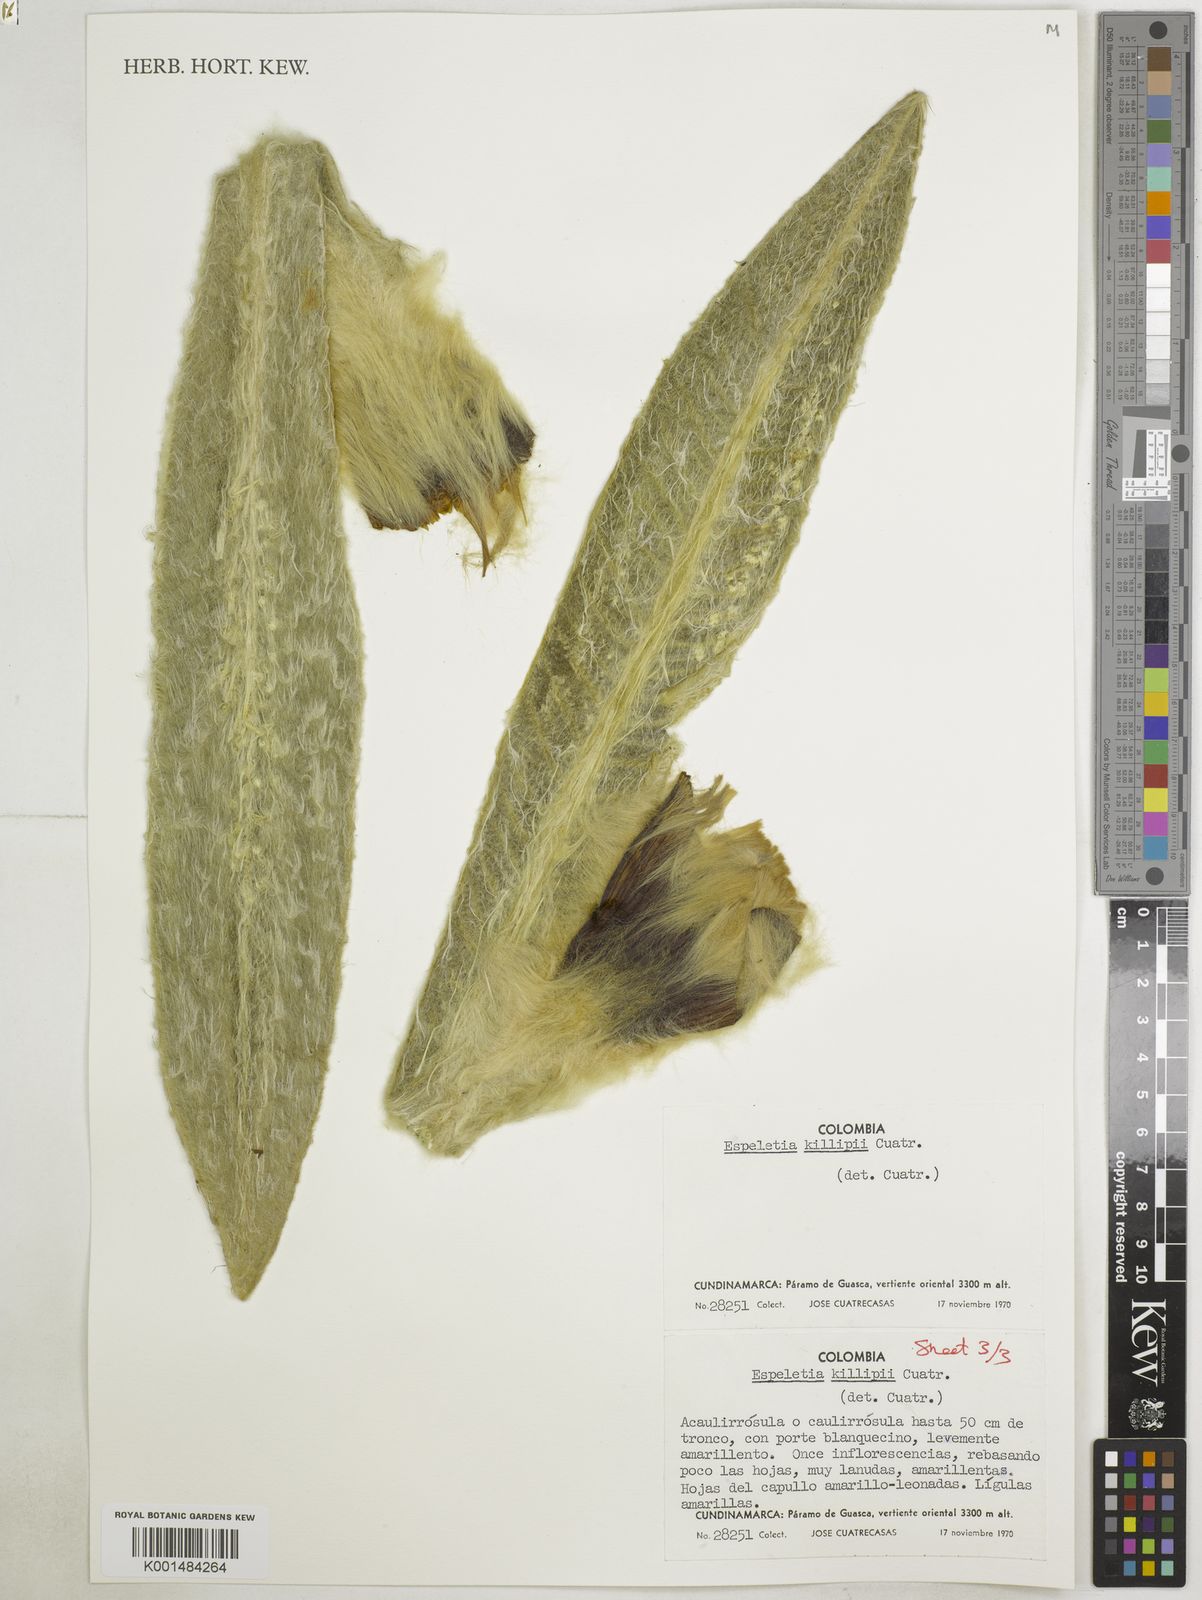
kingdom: Plantae
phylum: Tracheophyta
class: Magnoliopsida
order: Asterales
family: Asteraceae
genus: Espeletia
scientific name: Espeletia killipii
